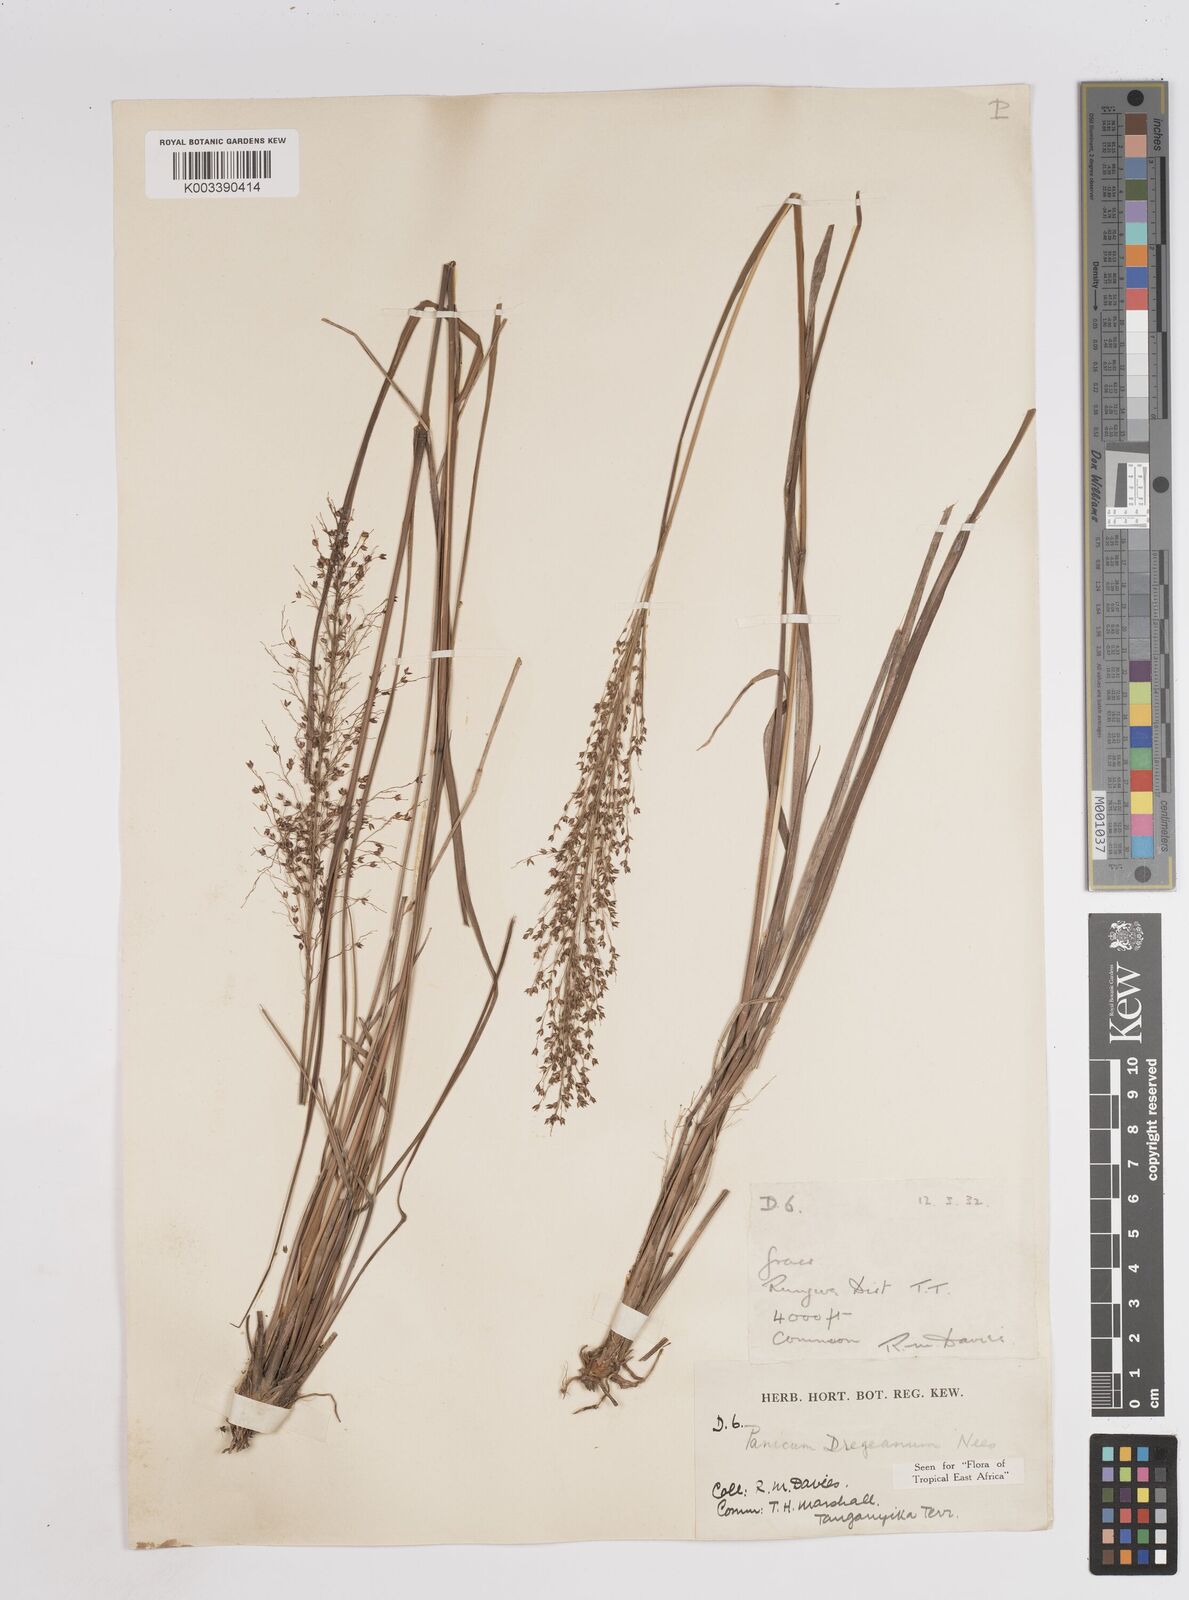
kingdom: Plantae
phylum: Tracheophyta
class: Liliopsida
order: Poales
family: Poaceae
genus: Panicum
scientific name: Panicum dregeanum
